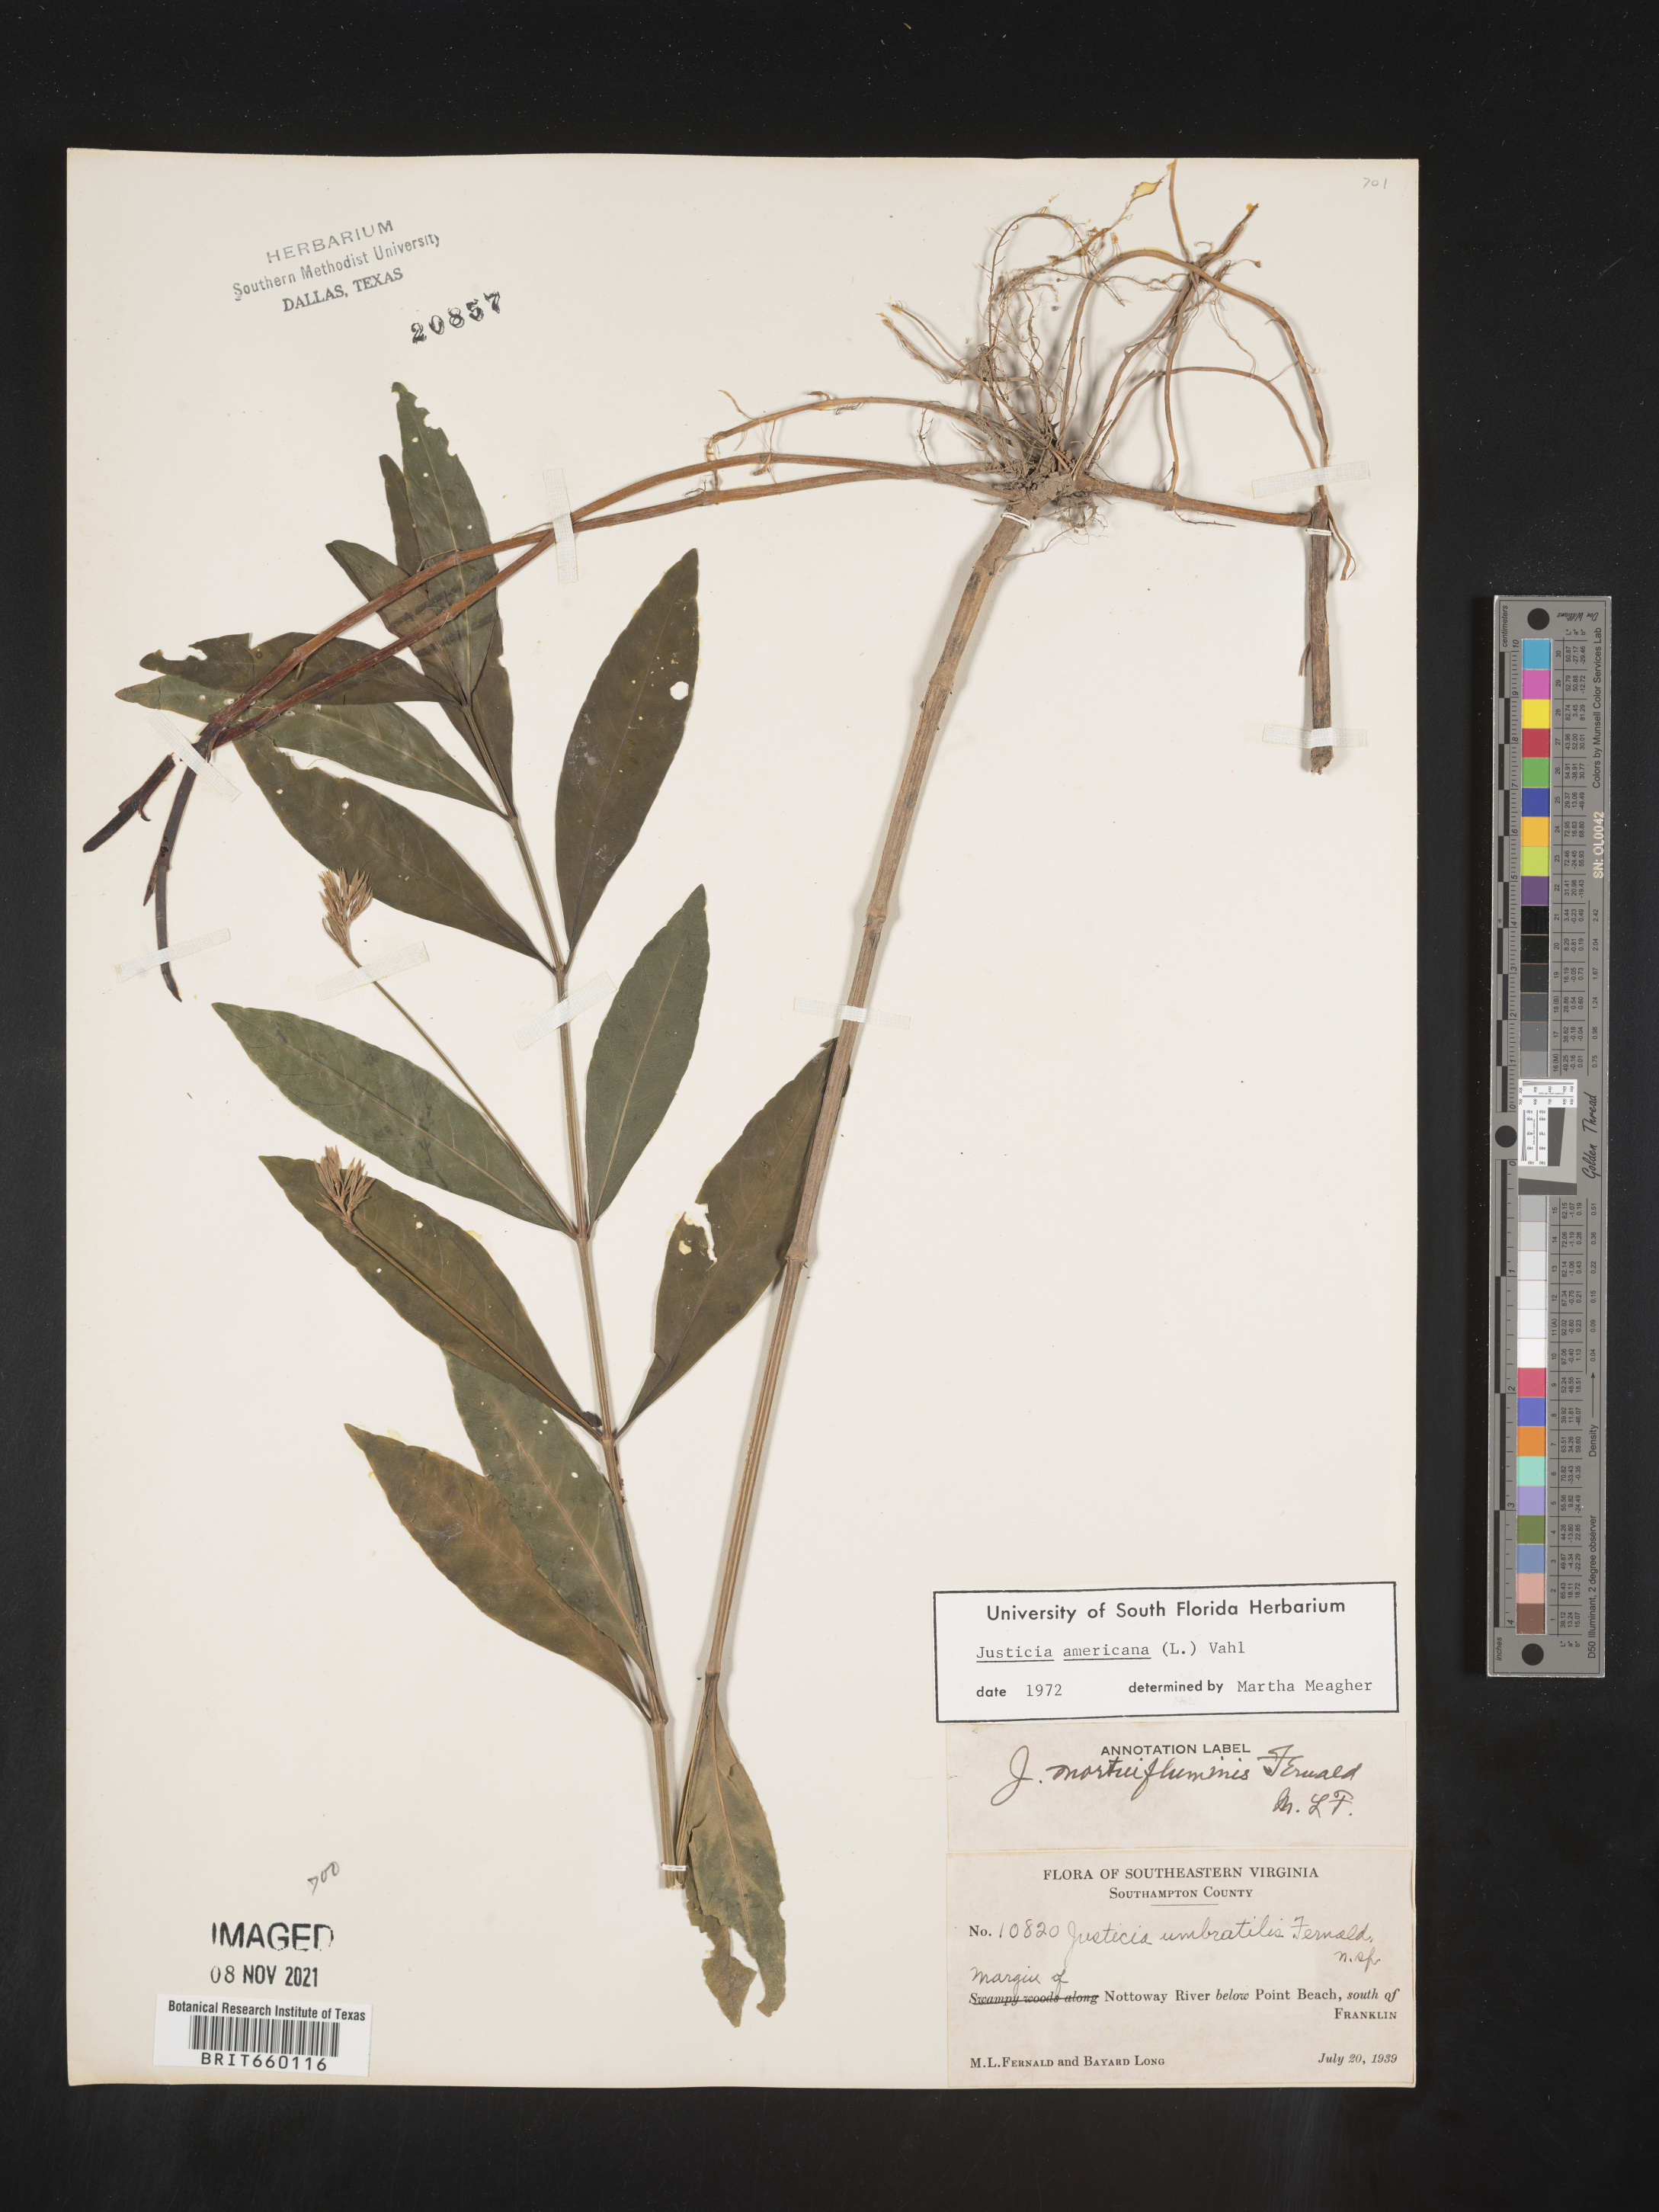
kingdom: Plantae
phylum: Tracheophyta
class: Magnoliopsida
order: Lamiales
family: Acanthaceae
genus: Dianthera
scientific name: Dianthera americana
